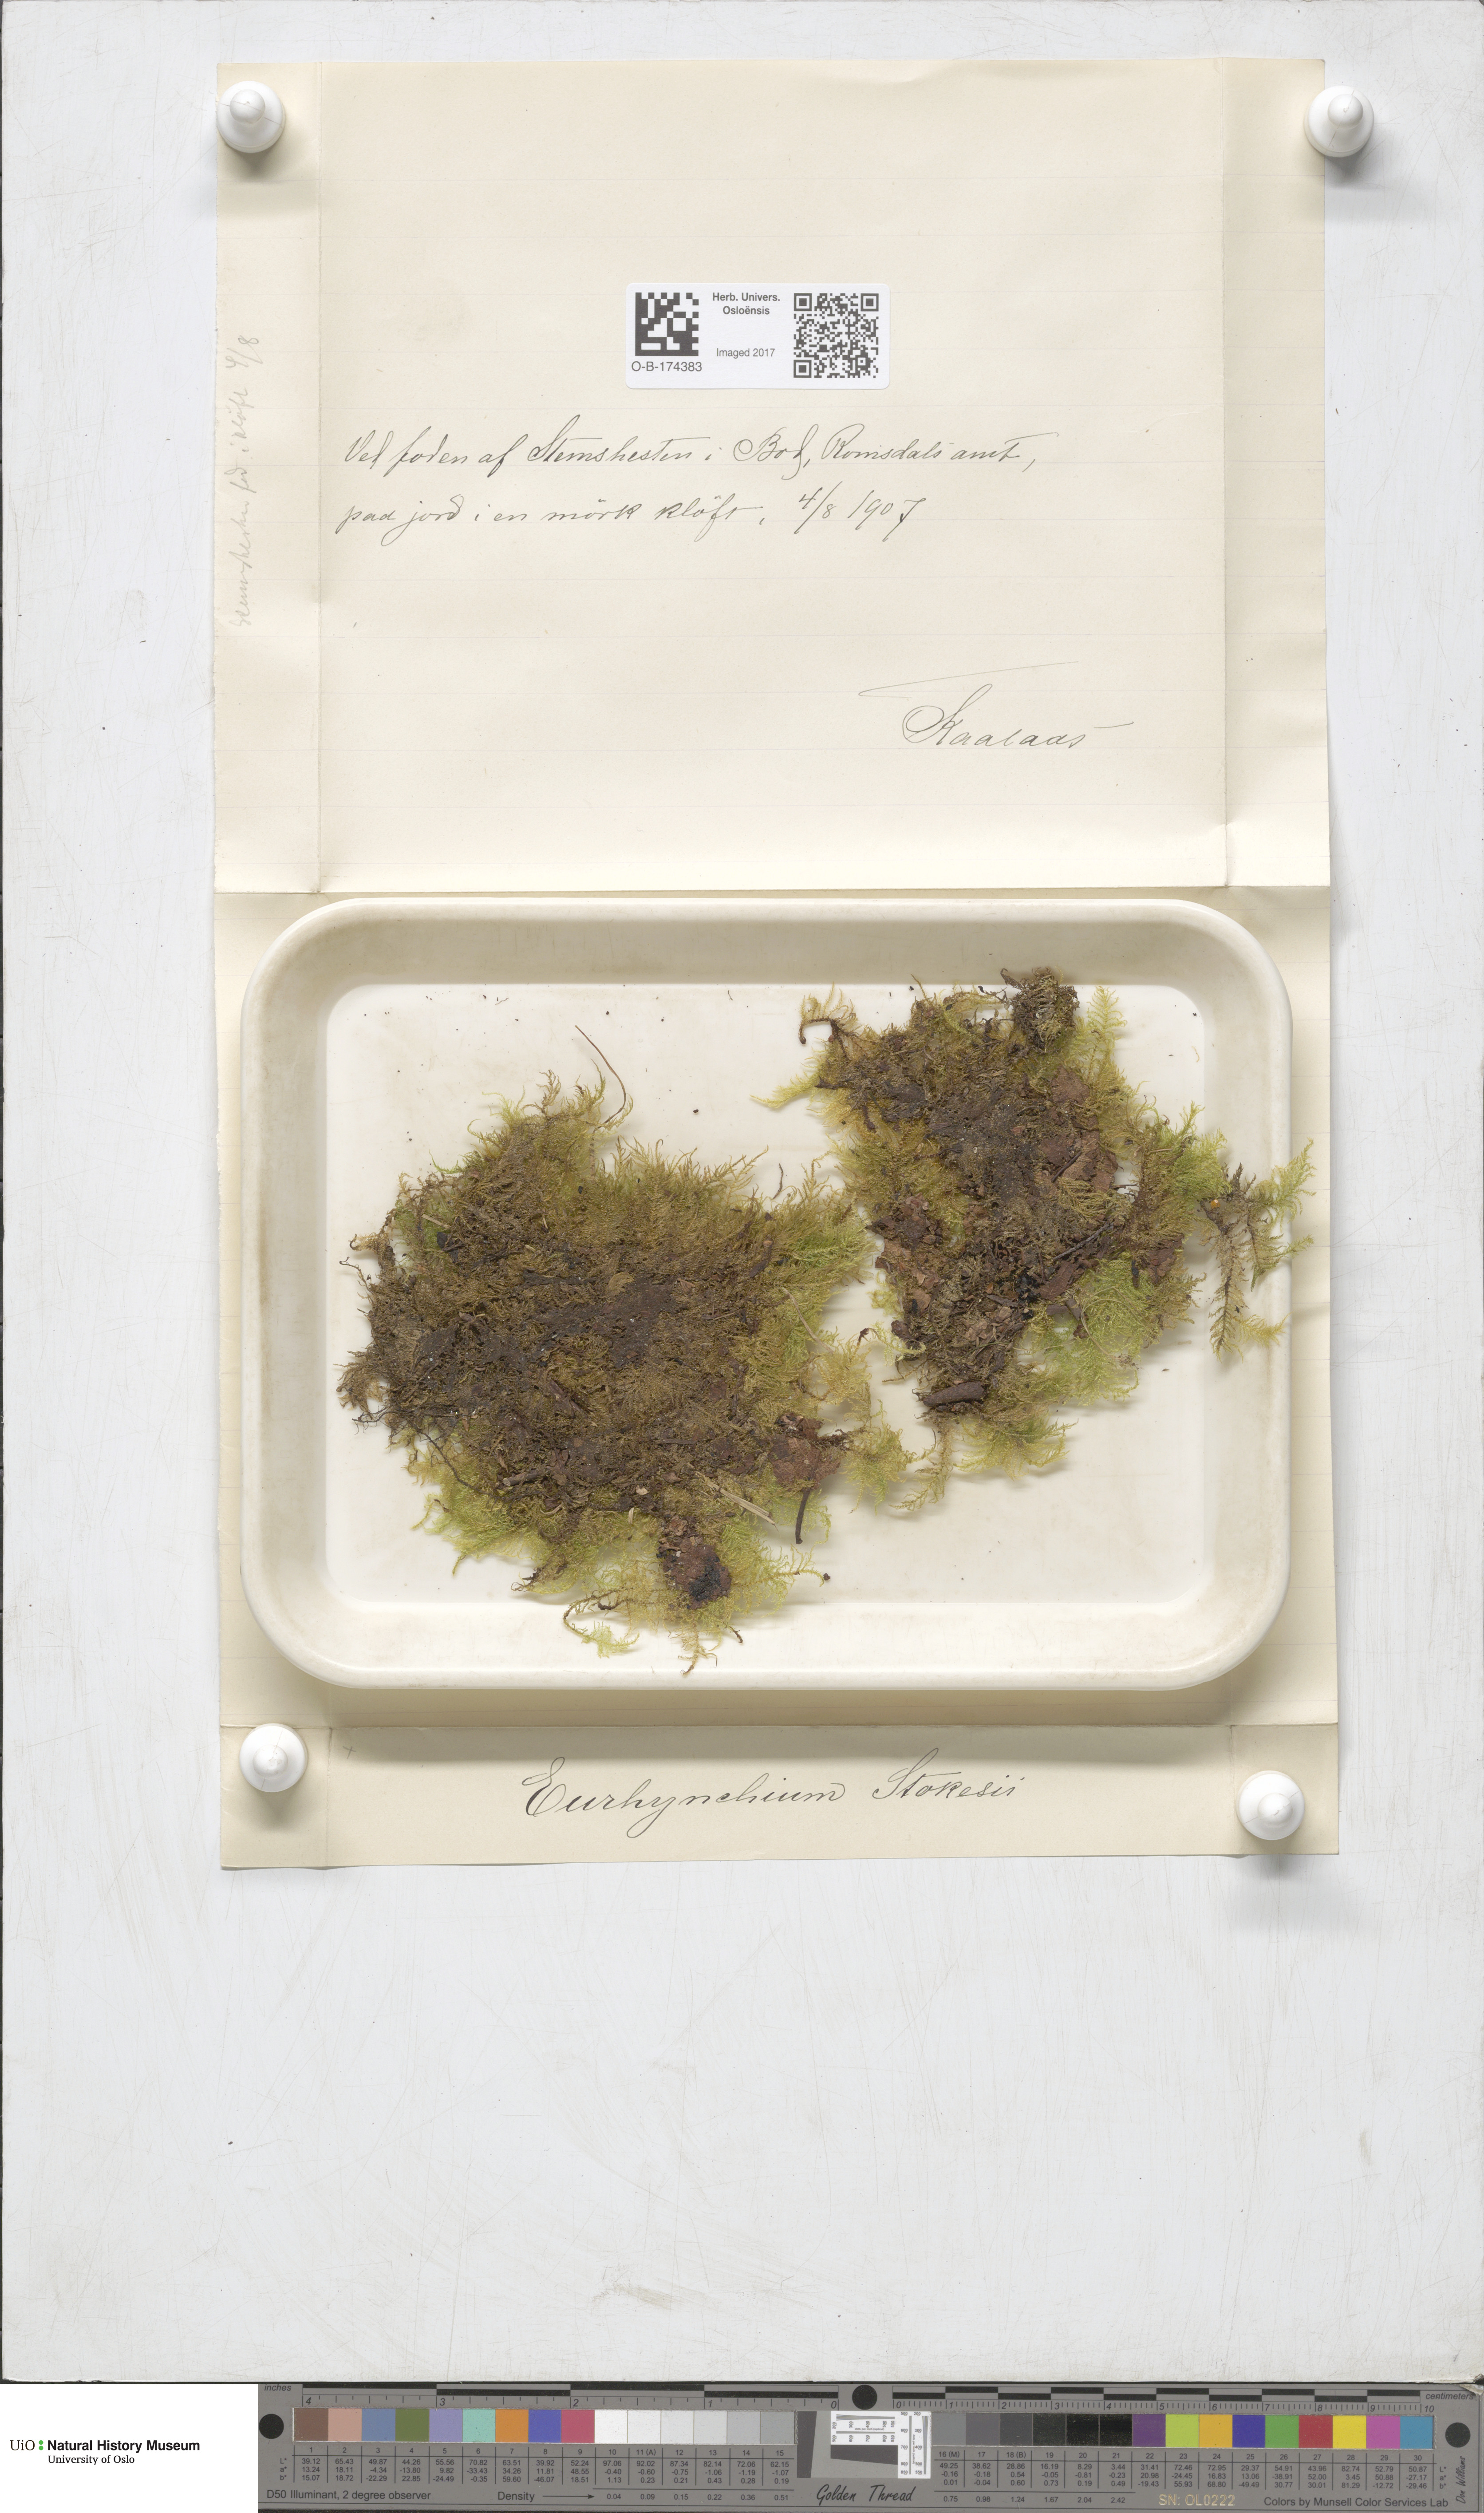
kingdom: Plantae
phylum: Bryophyta
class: Bryopsida
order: Hypnales
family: Brachytheciaceae
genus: Kindbergia
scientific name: Kindbergia praelonga
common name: Slender beaked moss
